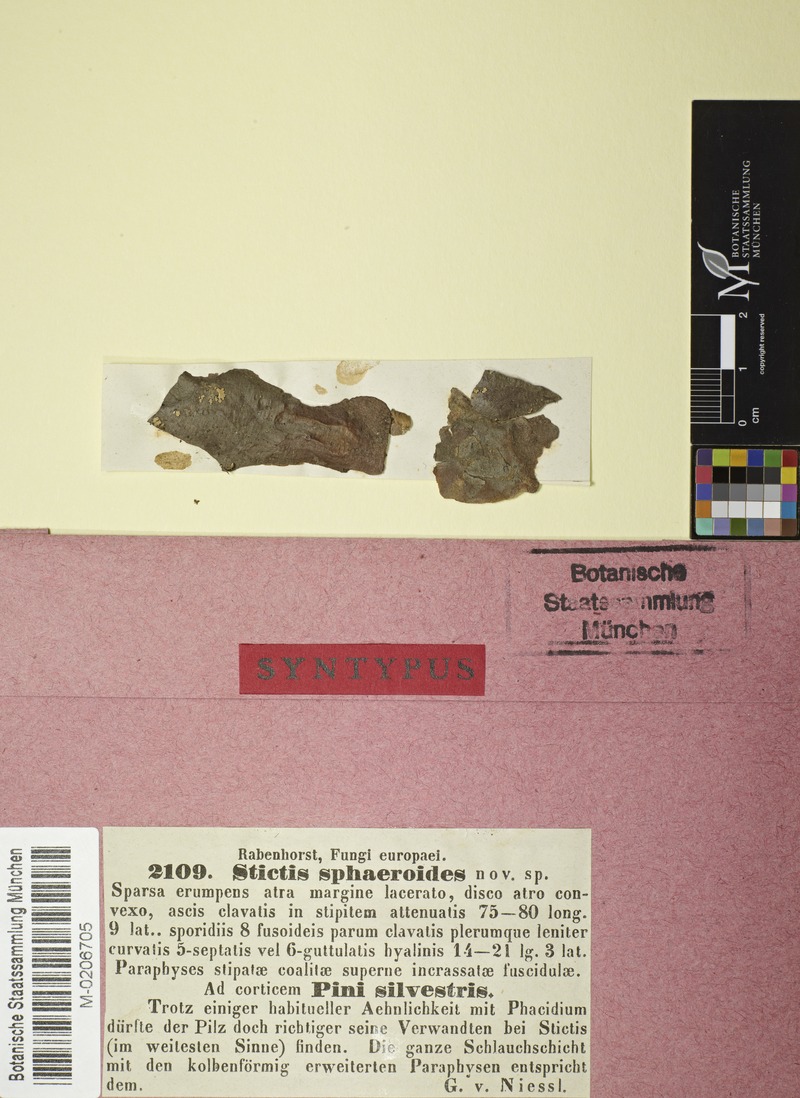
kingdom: Fungi
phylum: Ascomycota
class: Lecanoromycetes
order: Ostropales
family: Stictidaceae
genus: Stictis
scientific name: Stictis
